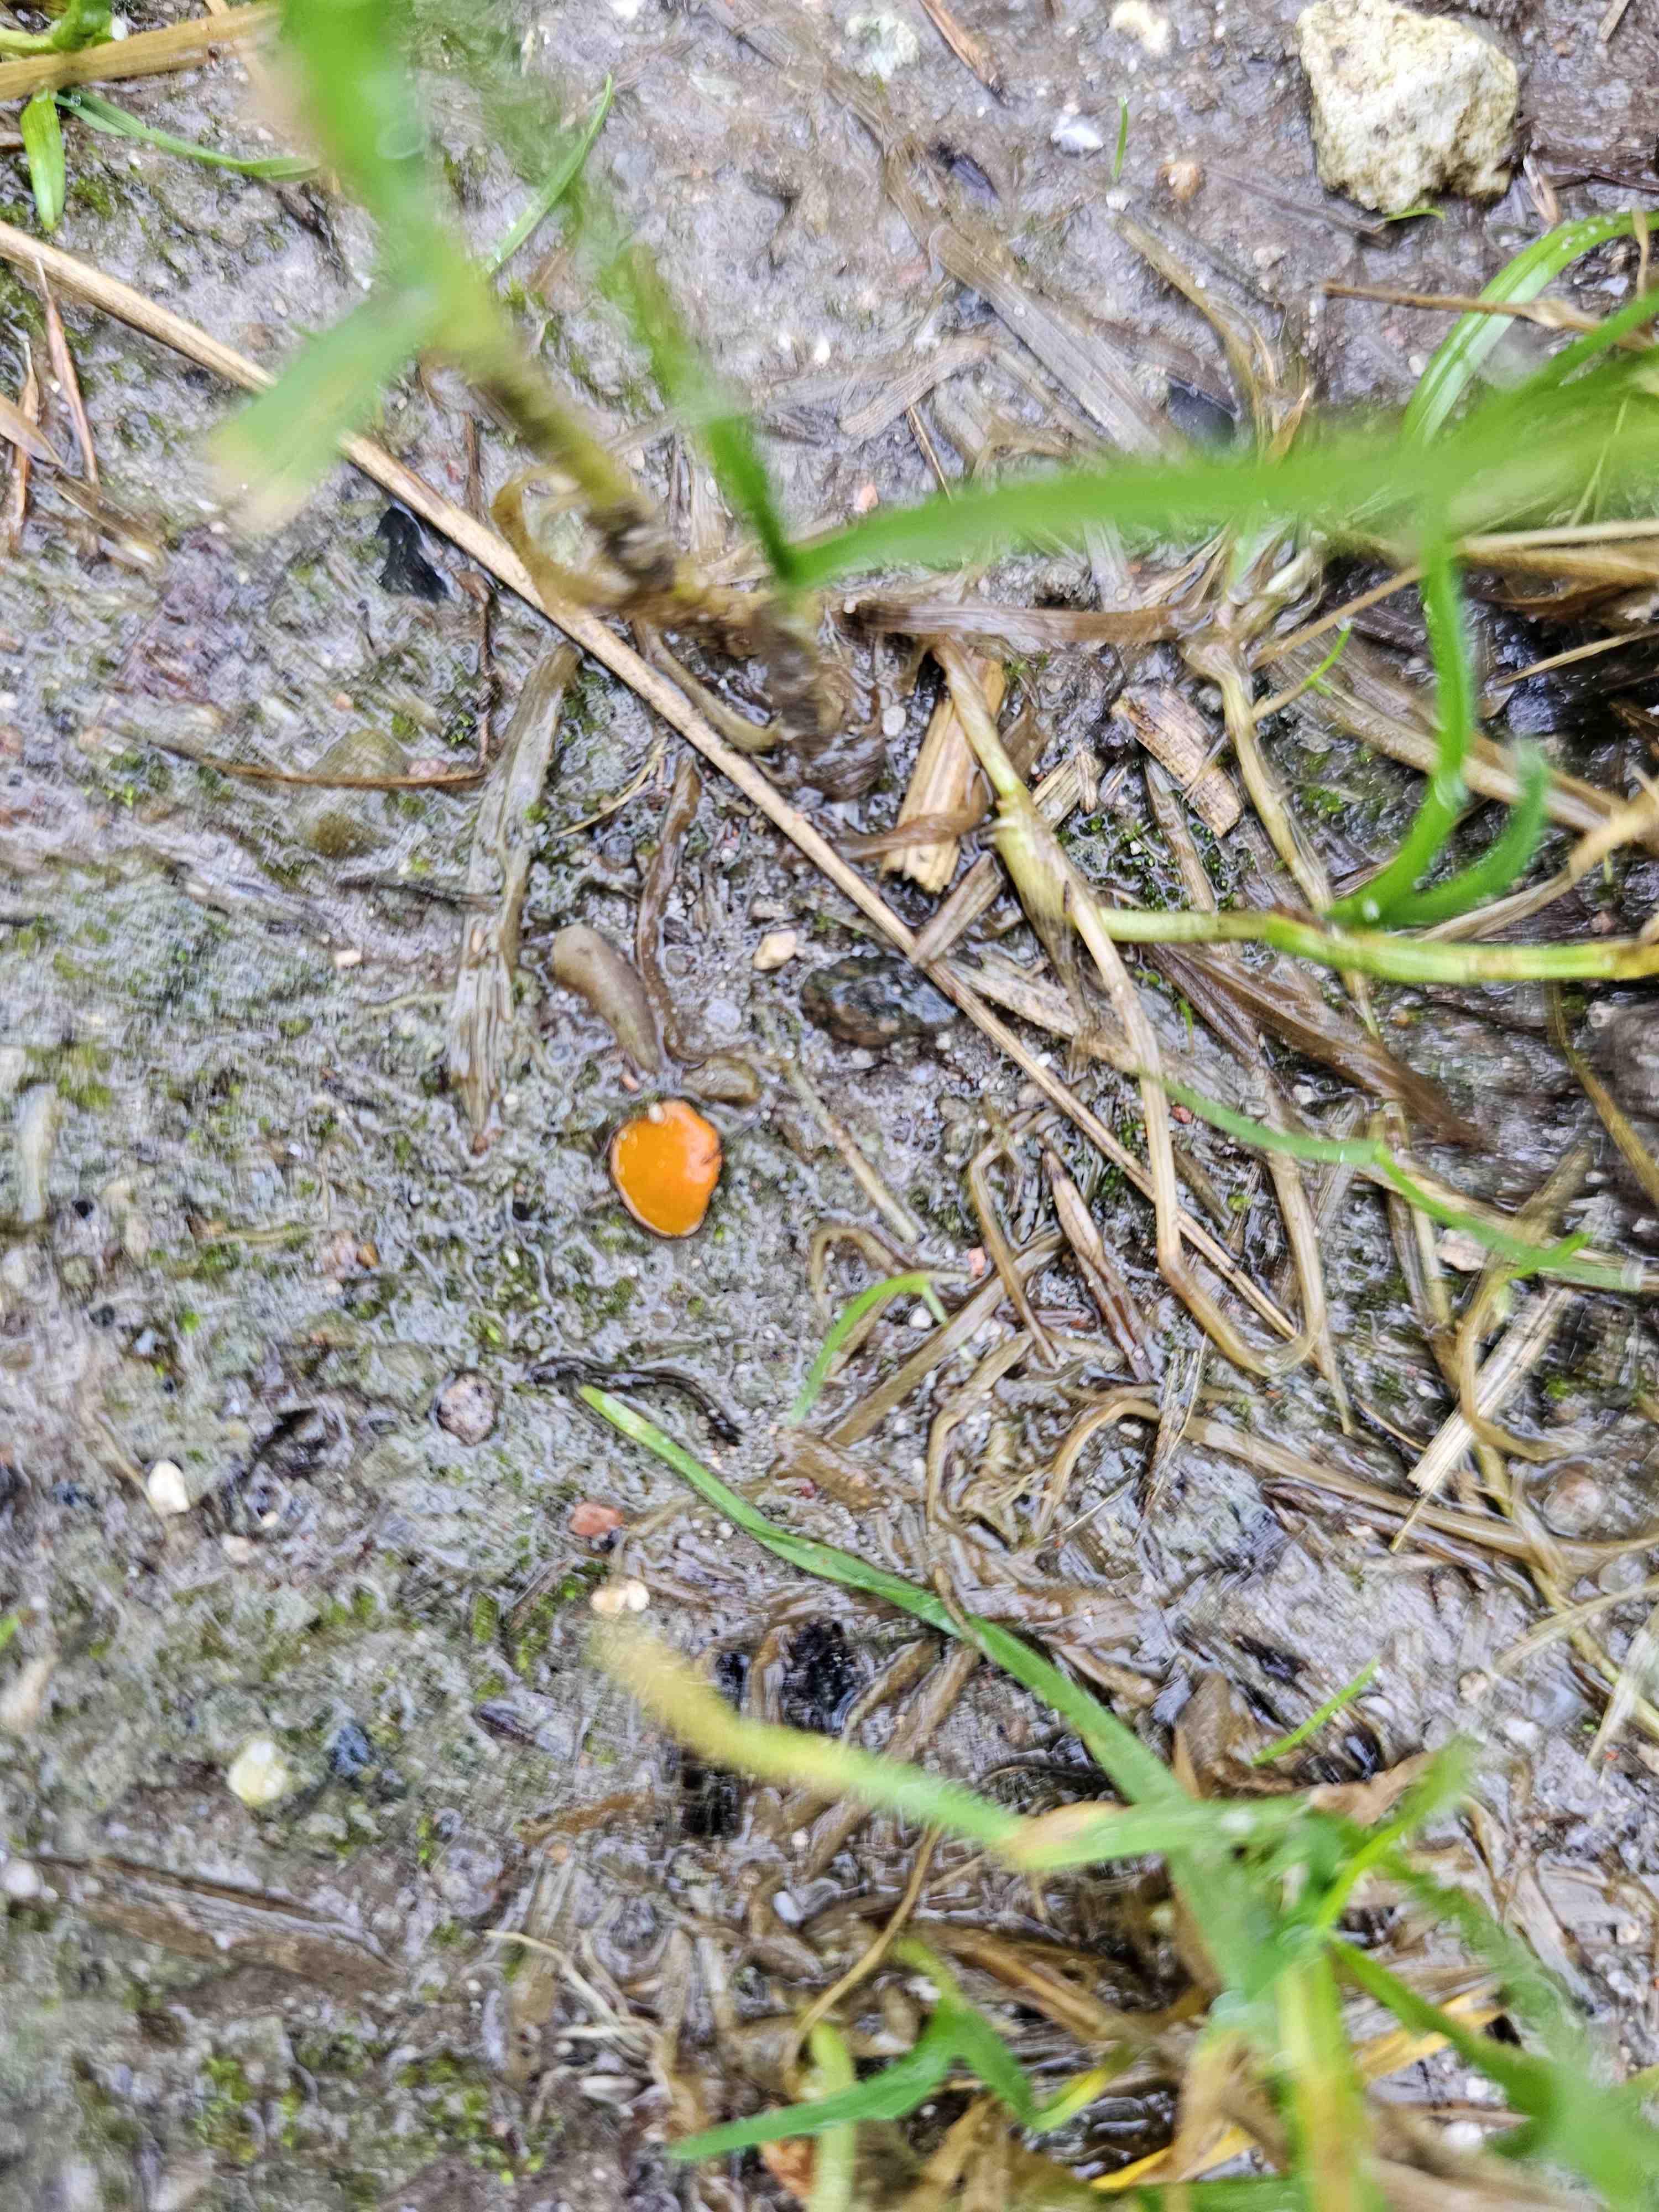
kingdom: Fungi
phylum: Ascomycota
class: Pezizomycetes
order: Pezizales
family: Pyronemataceae
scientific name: Pyronemataceae
